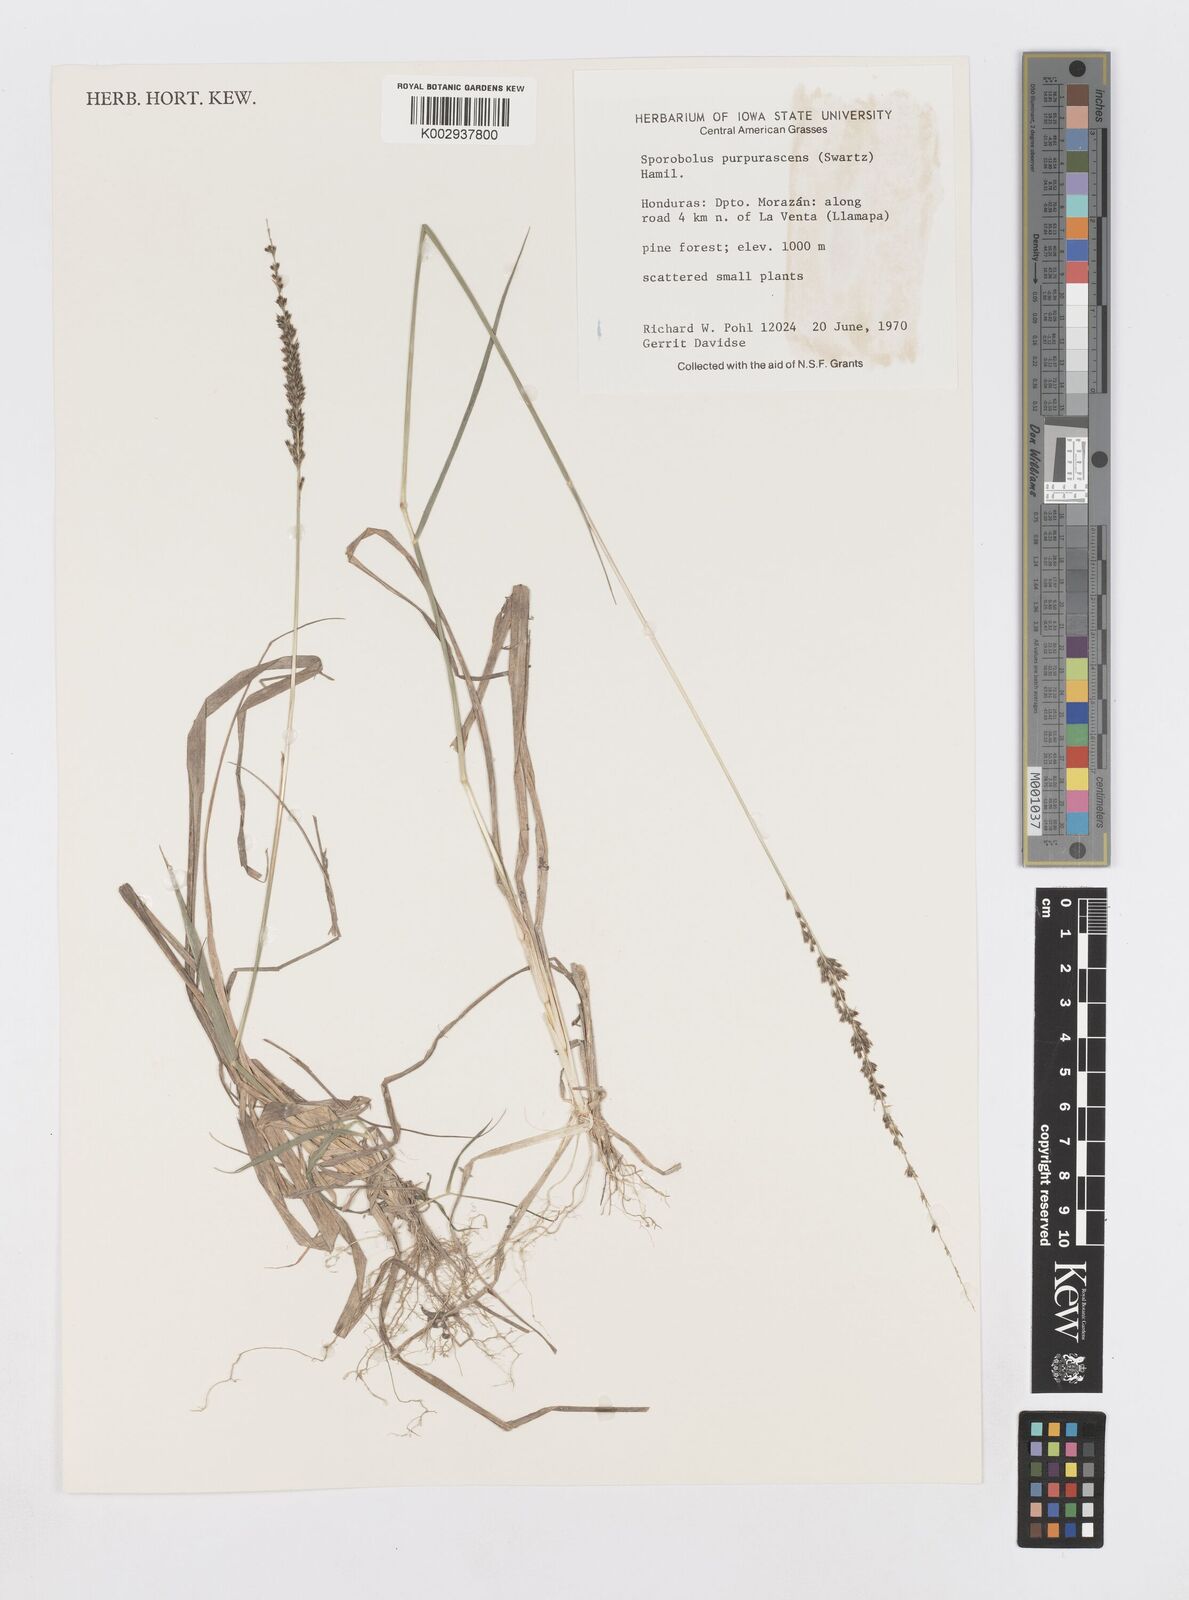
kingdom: Plantae
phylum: Tracheophyta
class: Liliopsida
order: Poales
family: Poaceae
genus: Sporobolus
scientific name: Sporobolus purpurascens
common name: Purple dropseed
